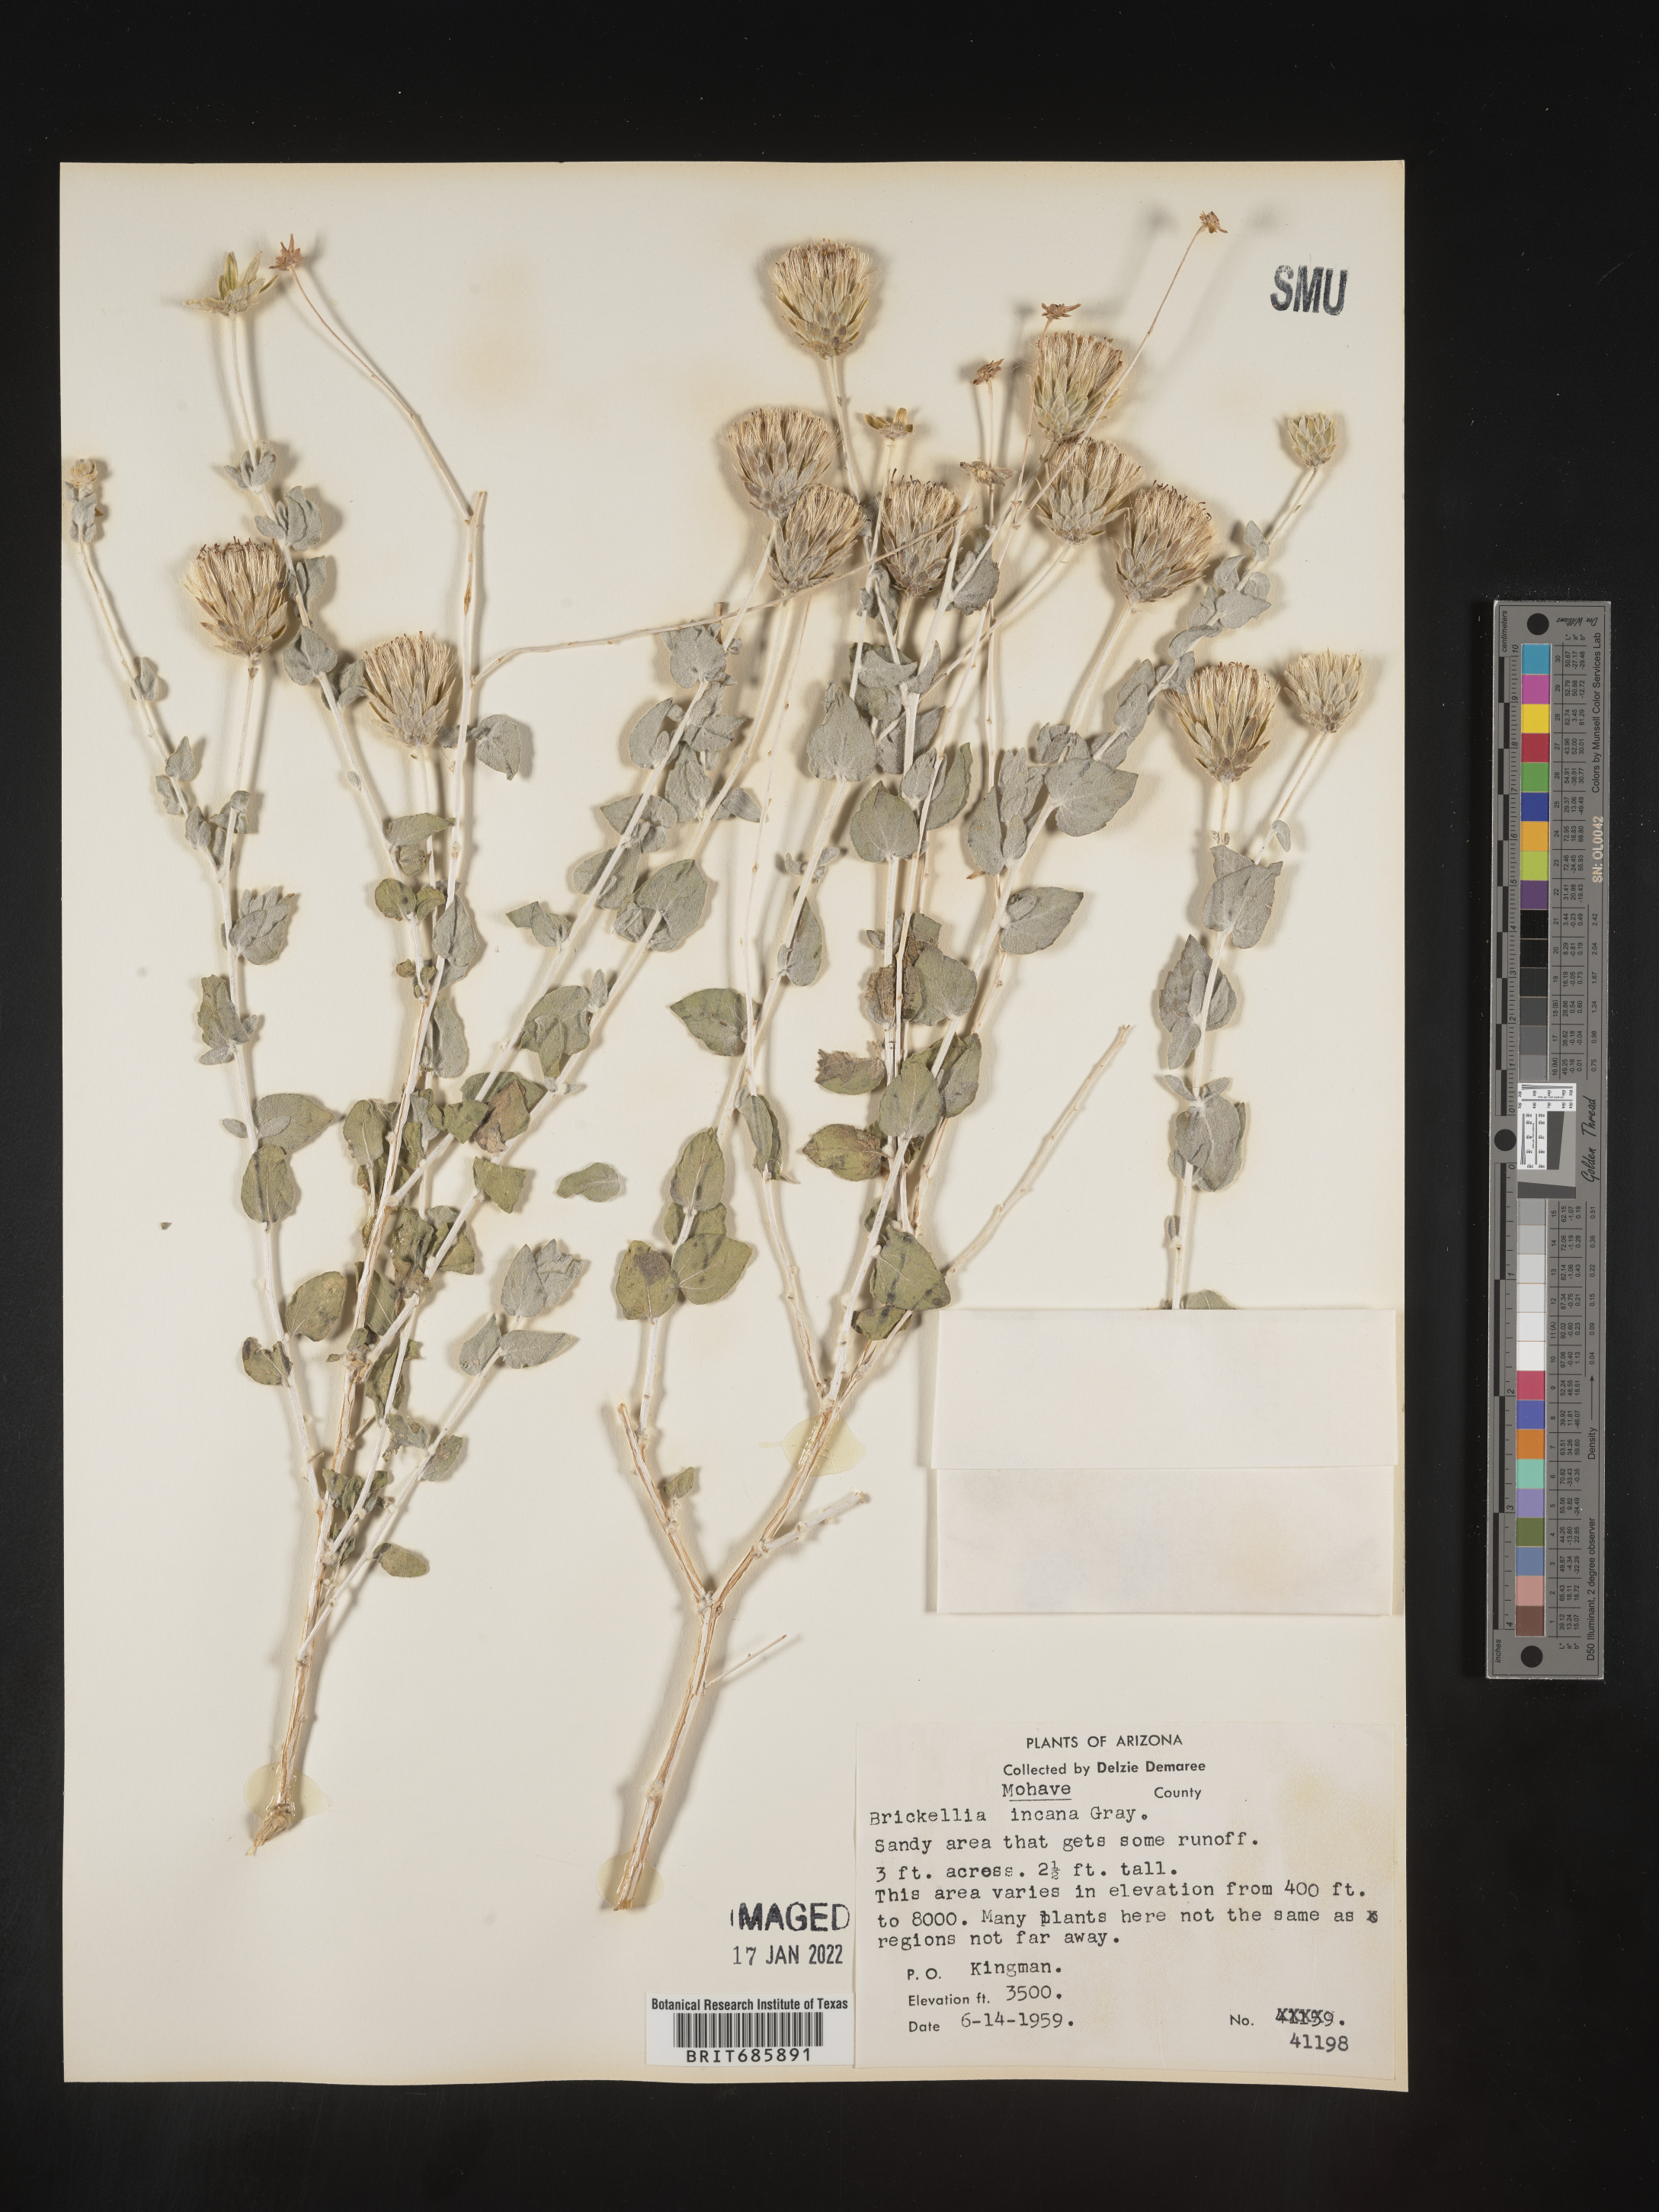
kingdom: Plantae
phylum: Tracheophyta
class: Magnoliopsida
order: Asterales
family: Asteraceae
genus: Brickellia
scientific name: Brickellia incana
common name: Woolly brickelbush
